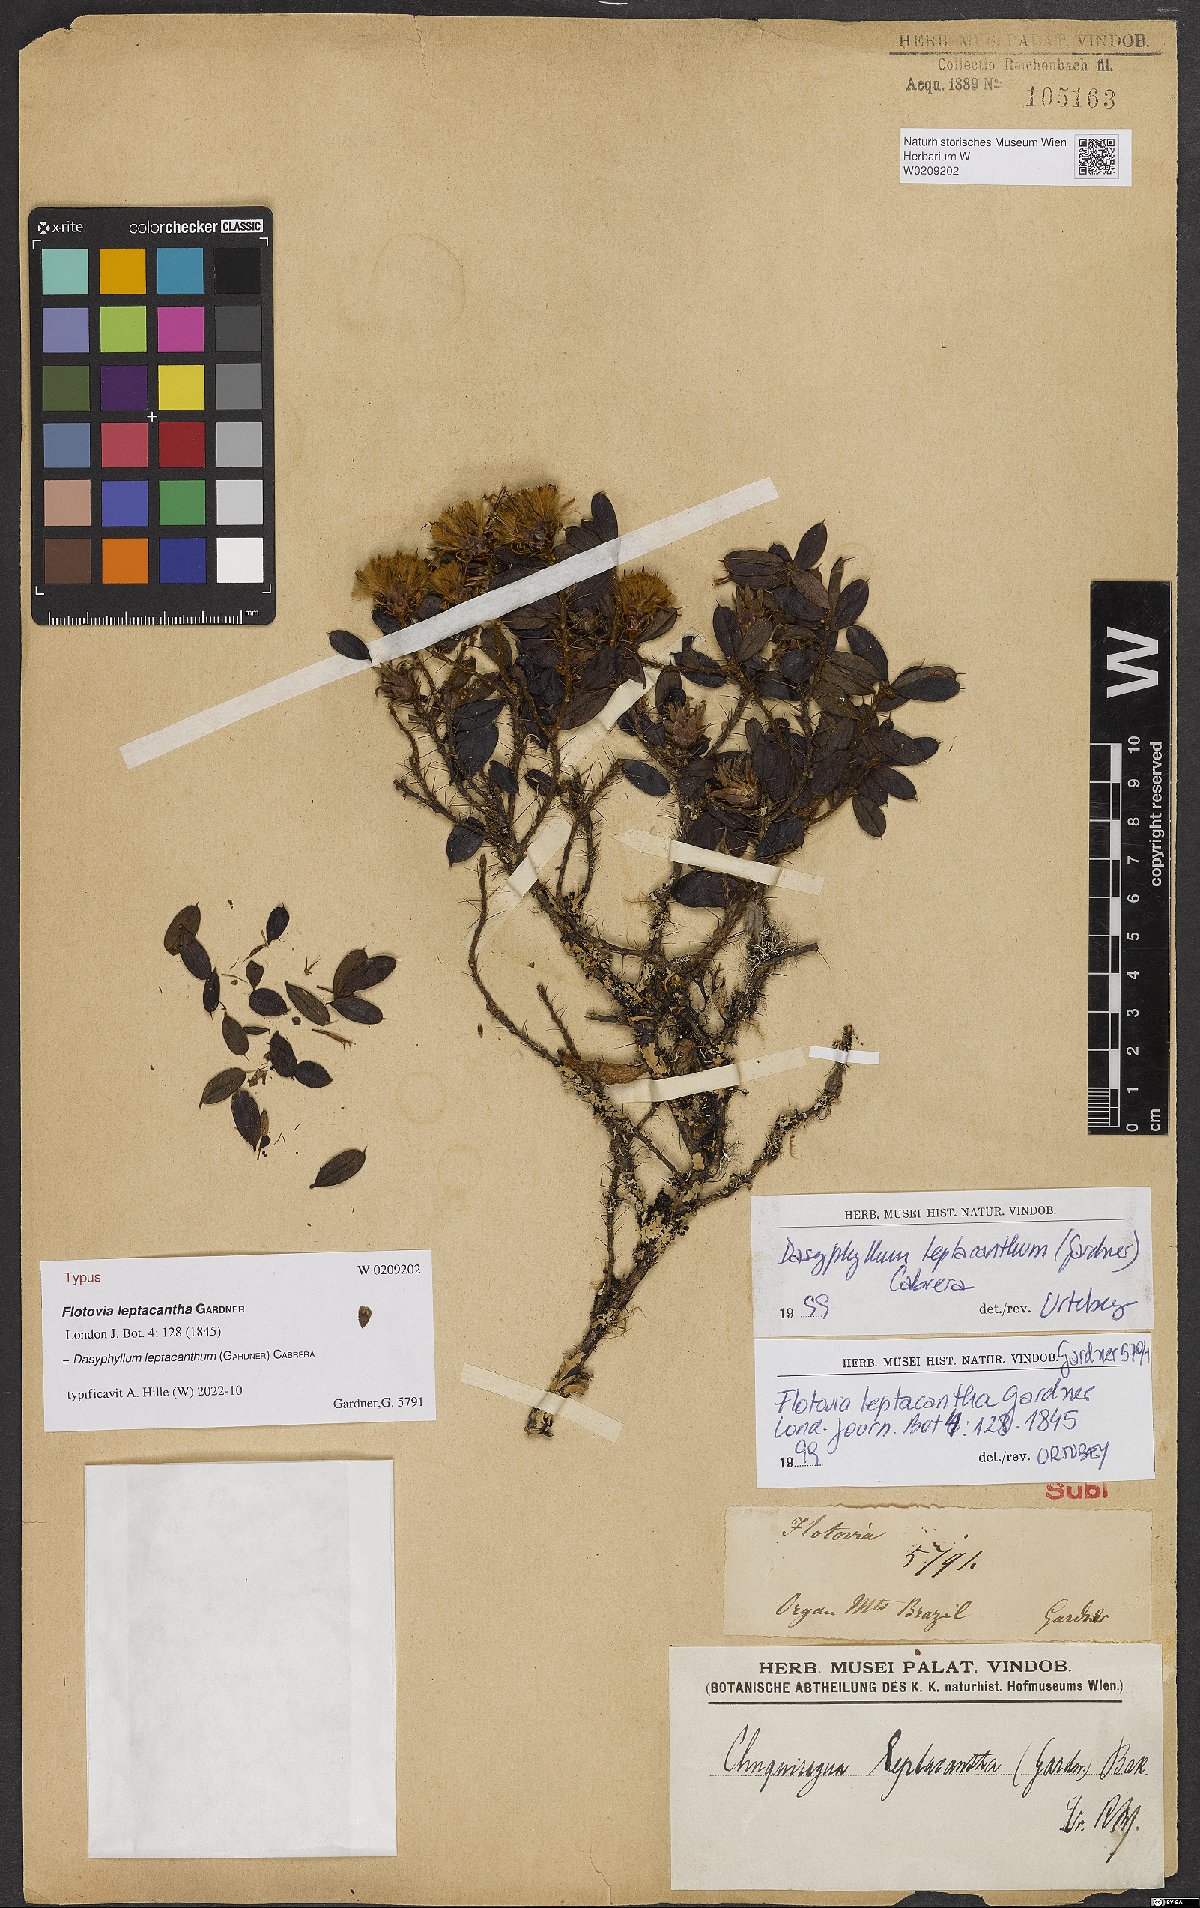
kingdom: Plantae
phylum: Tracheophyta
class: Magnoliopsida
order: Asterales
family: Asteraceae
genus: Dasyphyllum
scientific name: Dasyphyllum leptacanthum
